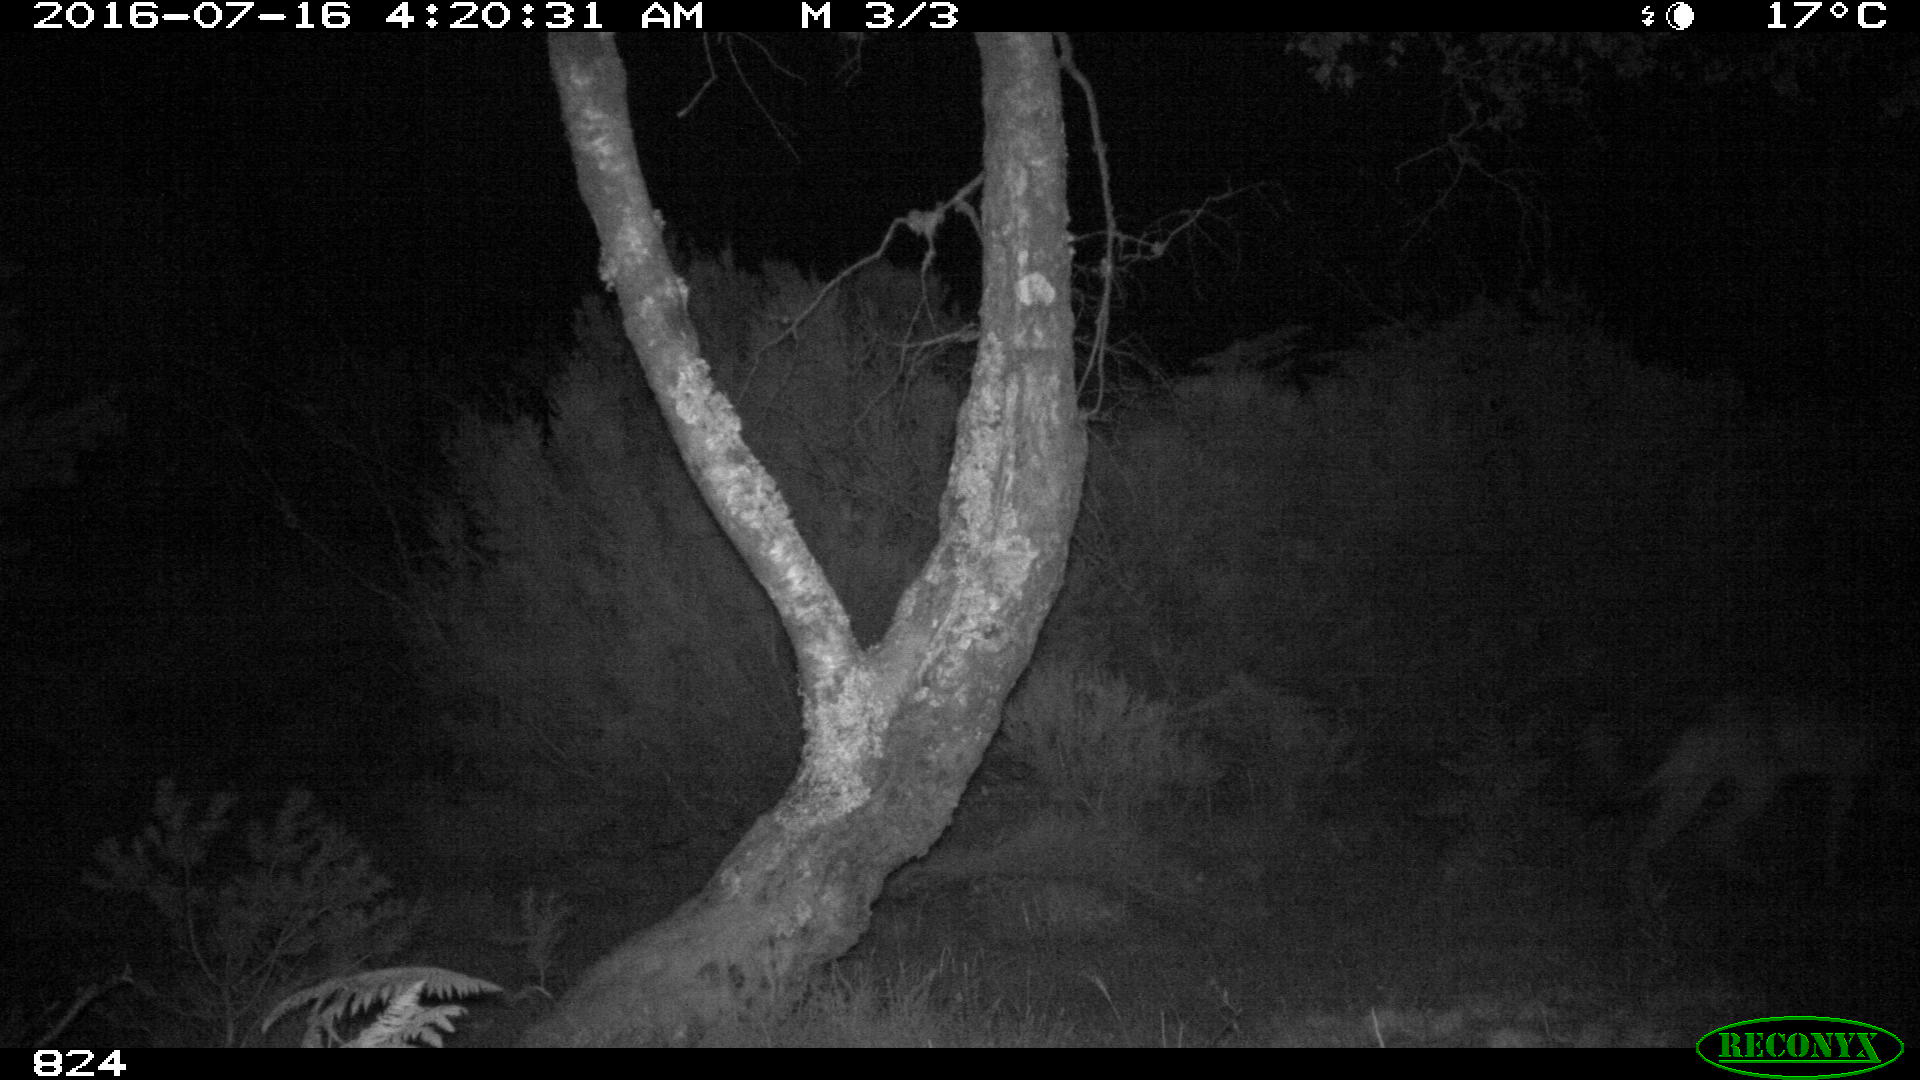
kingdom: Animalia
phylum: Chordata
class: Mammalia
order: Carnivora
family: Canidae
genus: Canis
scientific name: Canis lupus
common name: Gray wolf
